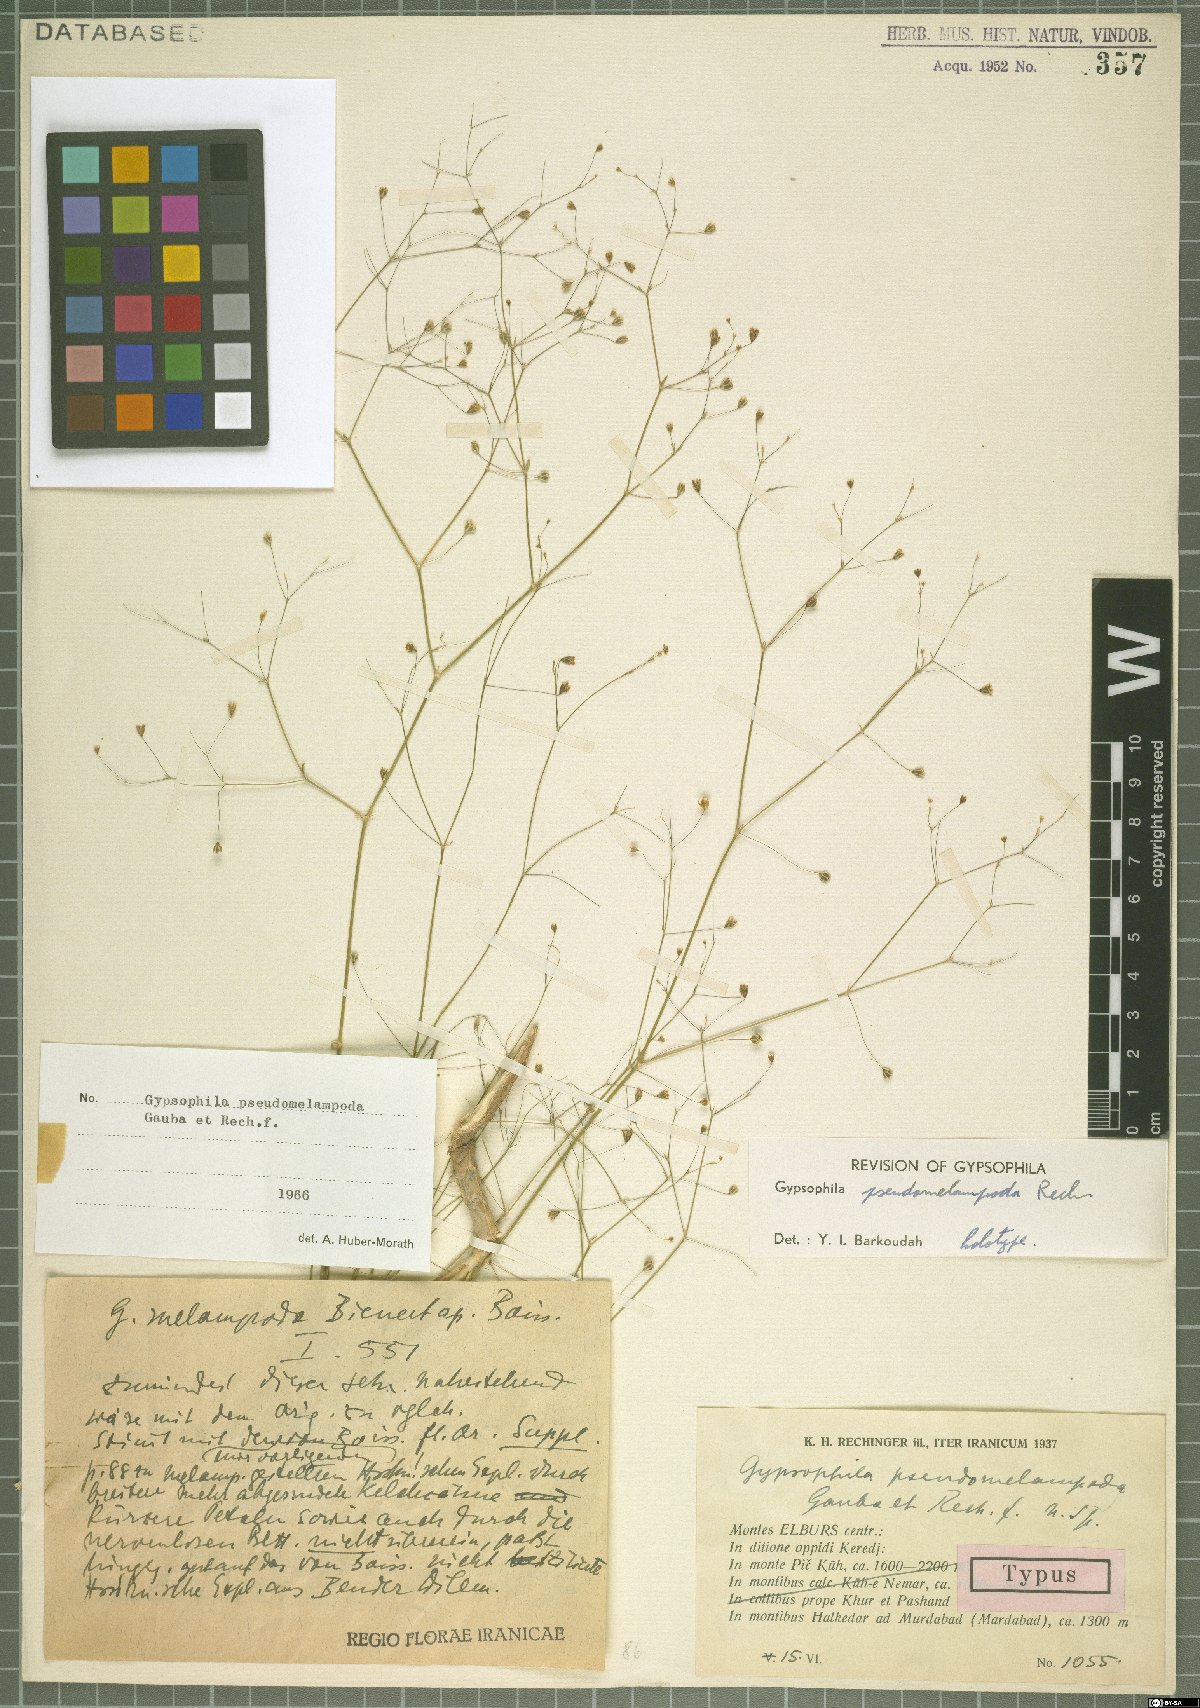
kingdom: Plantae
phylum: Tracheophyta
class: Magnoliopsida
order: Caryophyllales
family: Caryophyllaceae
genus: Gypsophila
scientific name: Gypsophila pseudomelampoda
